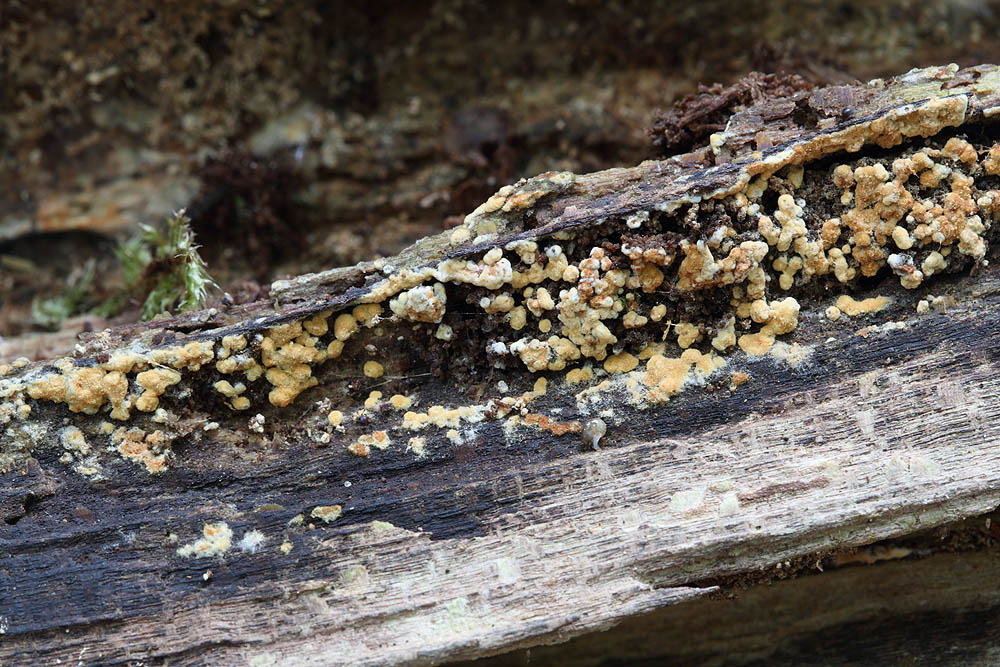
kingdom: Fungi
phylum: Basidiomycota
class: Agaricomycetes
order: Cantharellales
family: Botryobasidiaceae
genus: Botryobasidium
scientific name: Botryobasidium aureum
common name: gylden spindhinde
